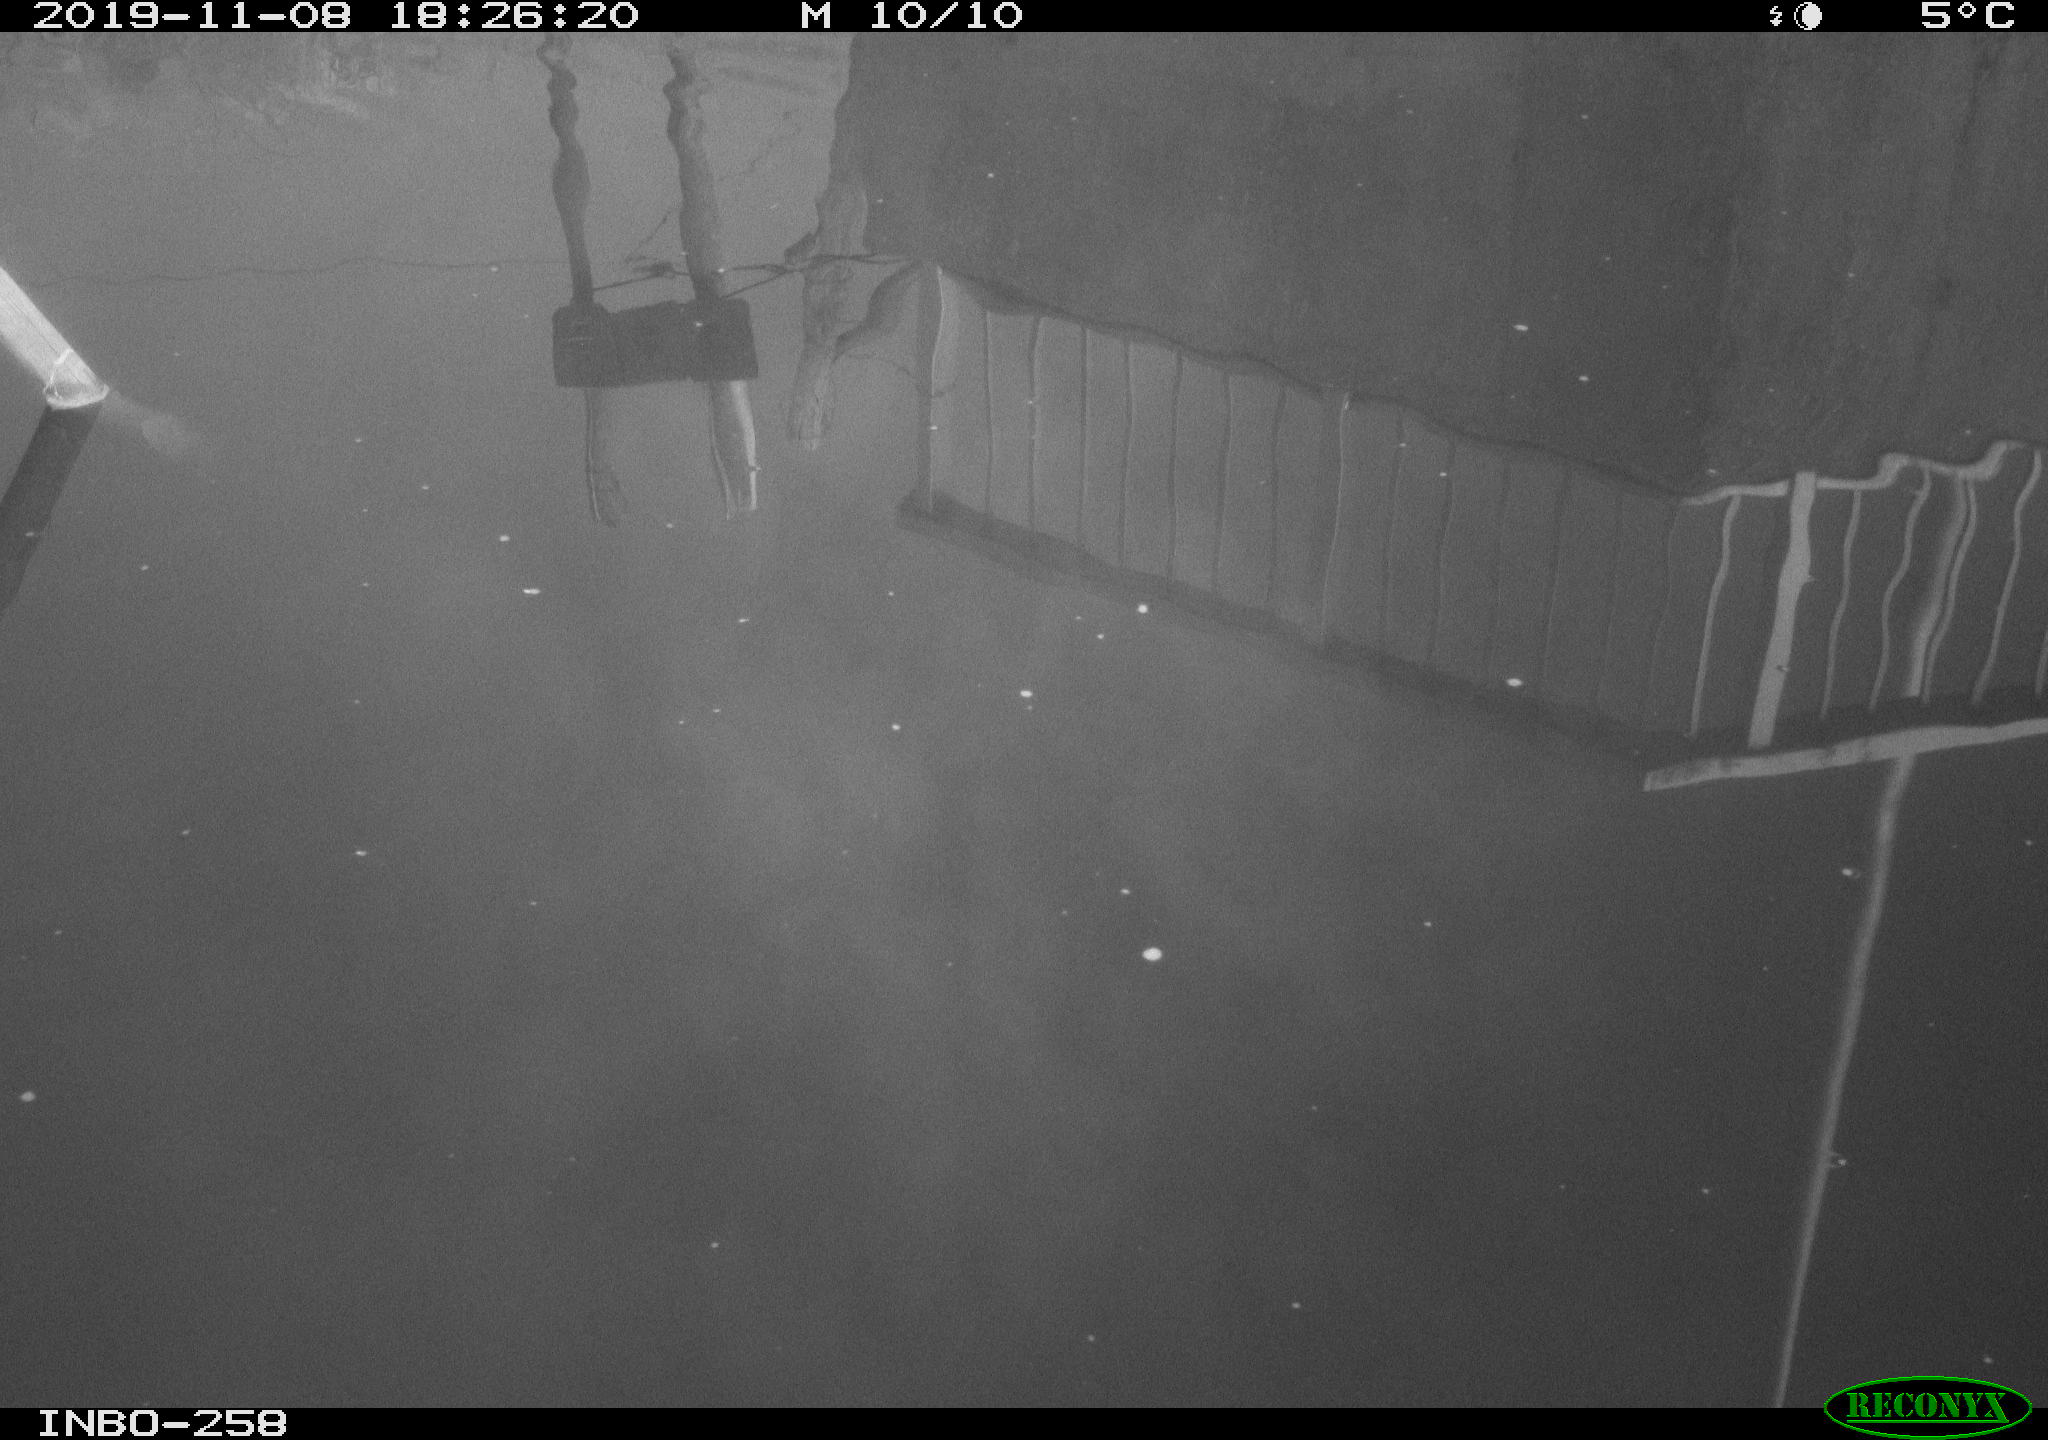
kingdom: Animalia
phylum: Chordata
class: Aves
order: Gruiformes
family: Rallidae
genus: Gallinula
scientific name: Gallinula chloropus
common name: Common moorhen
